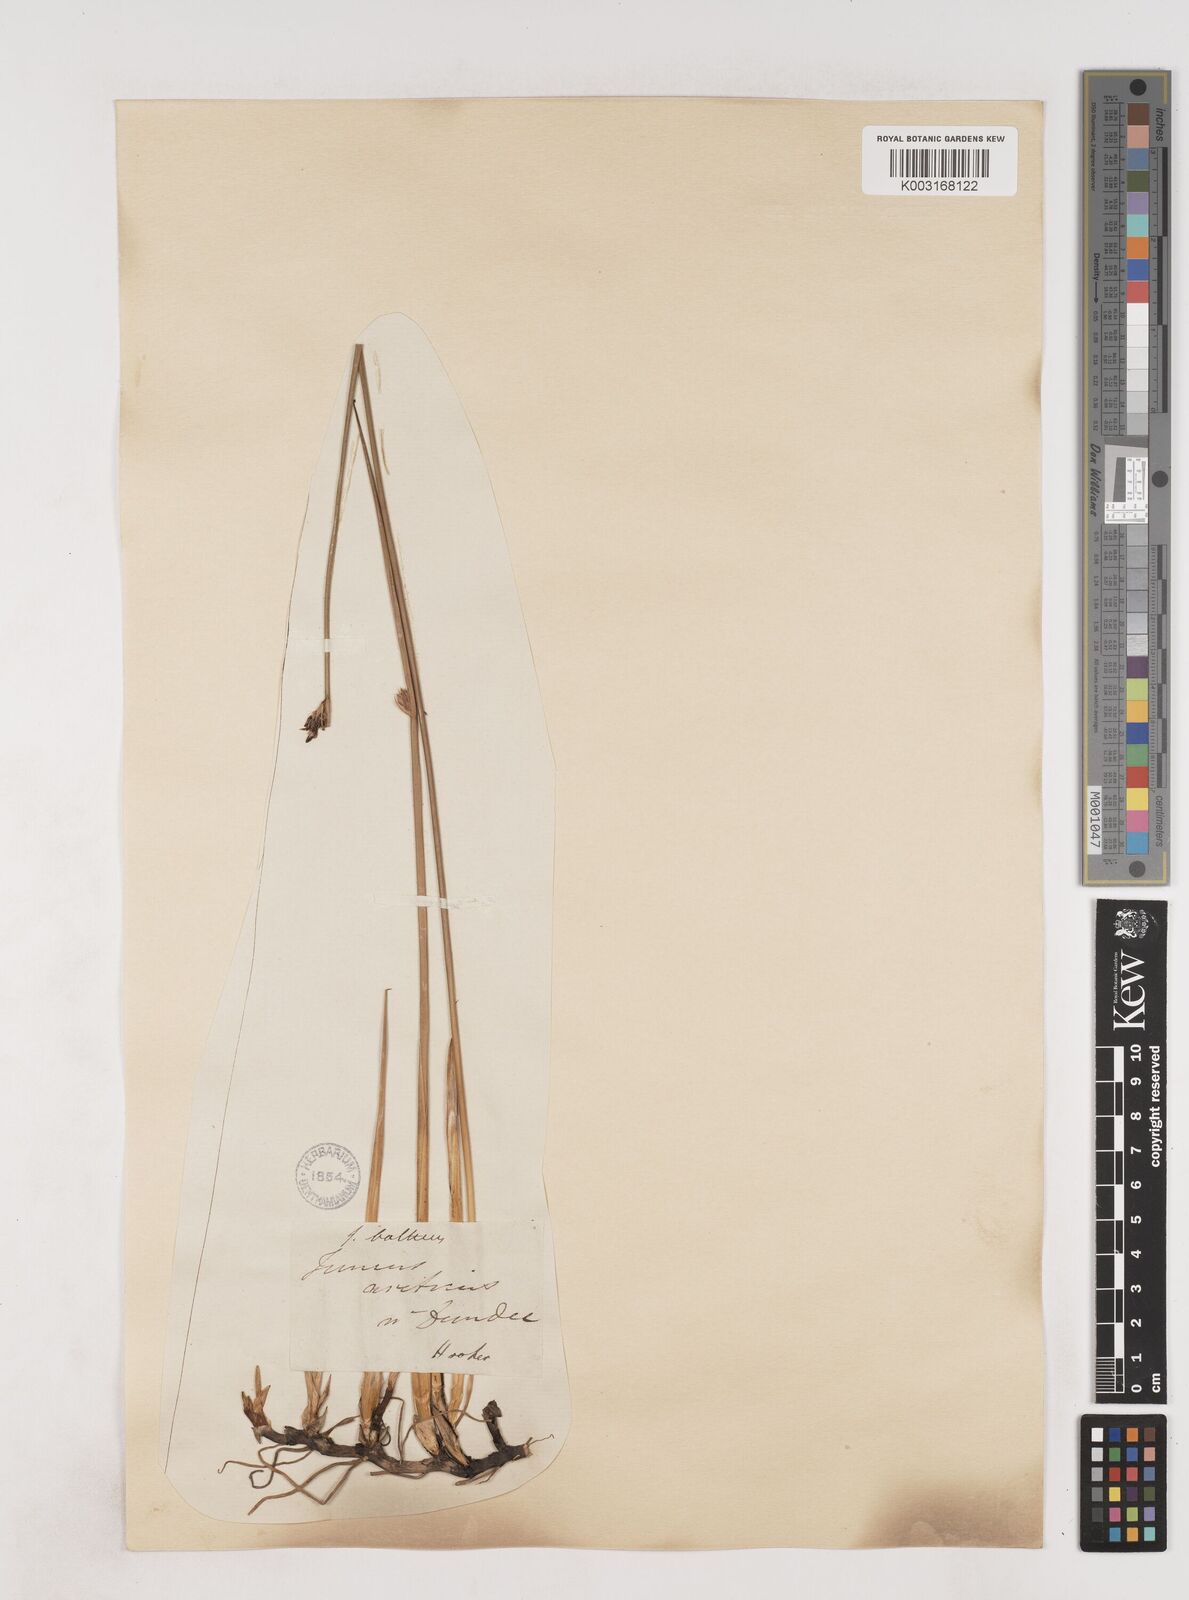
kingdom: Plantae
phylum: Tracheophyta
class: Liliopsida
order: Poales
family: Juncaceae
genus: Juncus
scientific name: Juncus balticus
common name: Baltic rush
